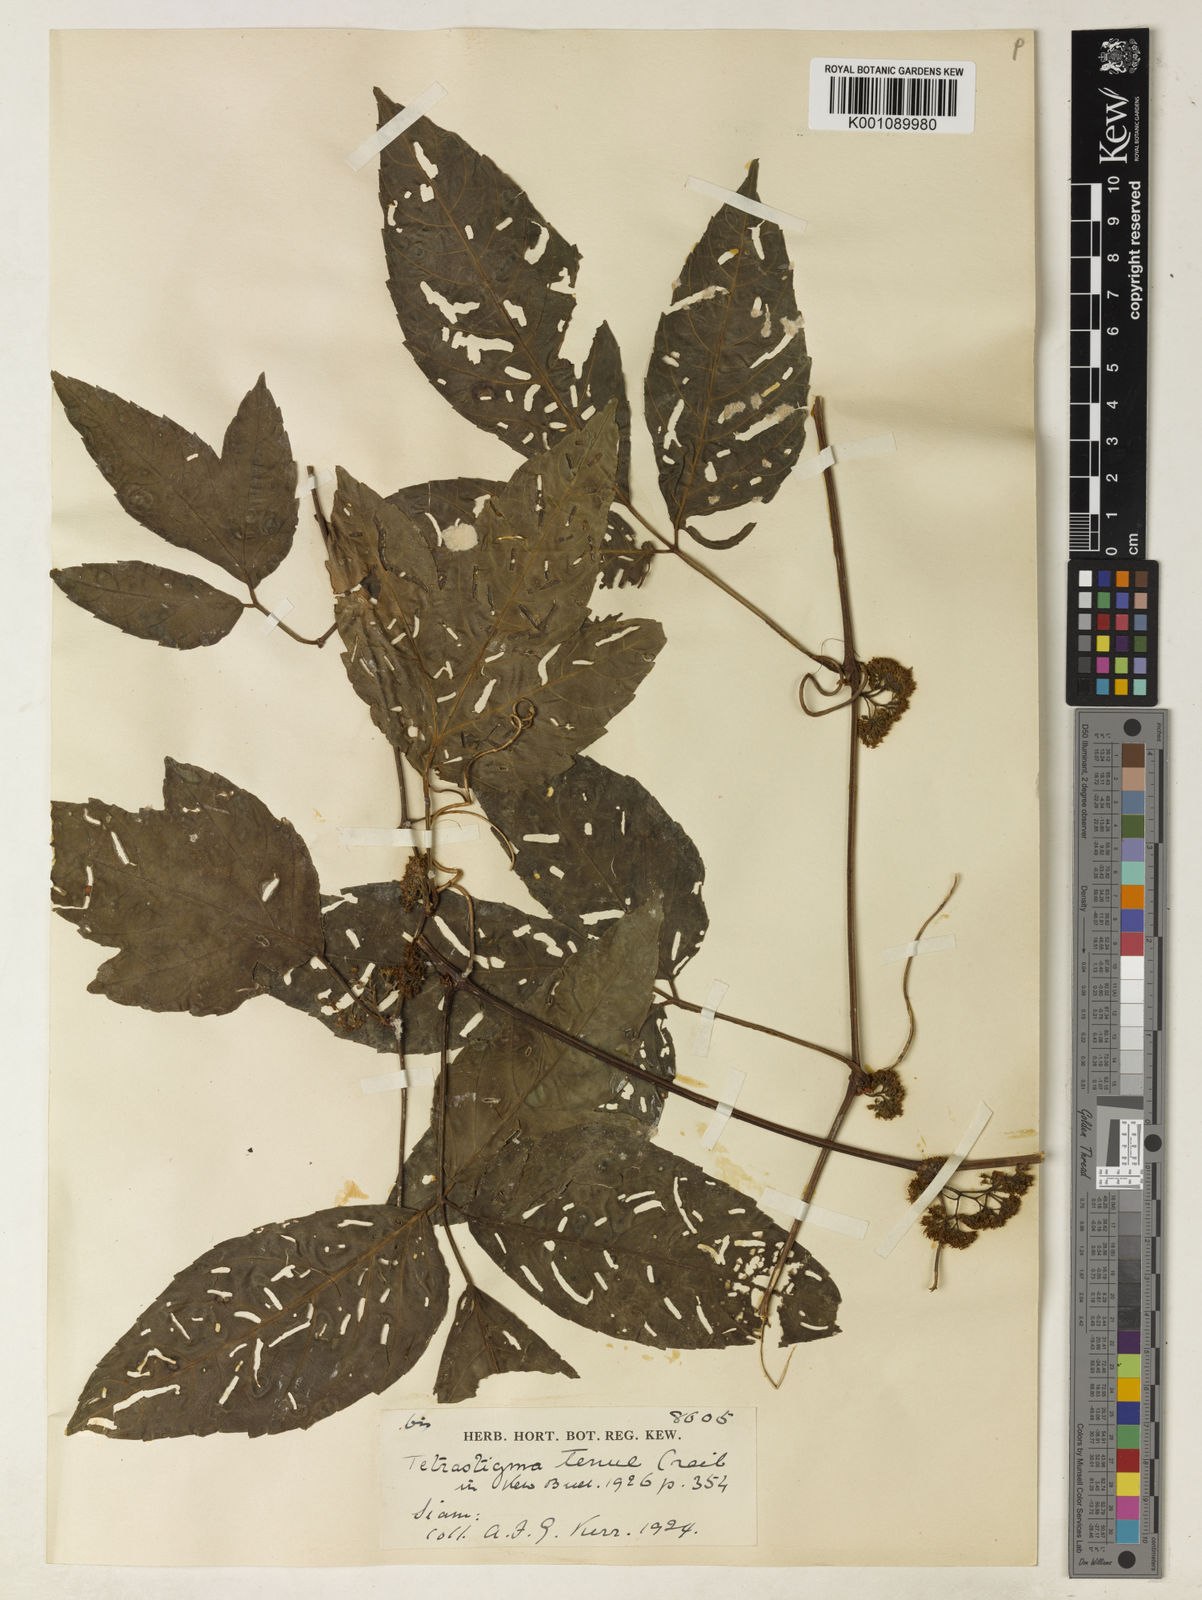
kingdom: Plantae
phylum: Tracheophyta
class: Magnoliopsida
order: Vitales
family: Vitaceae
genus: Tetrastigma
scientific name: Tetrastigma dubium
